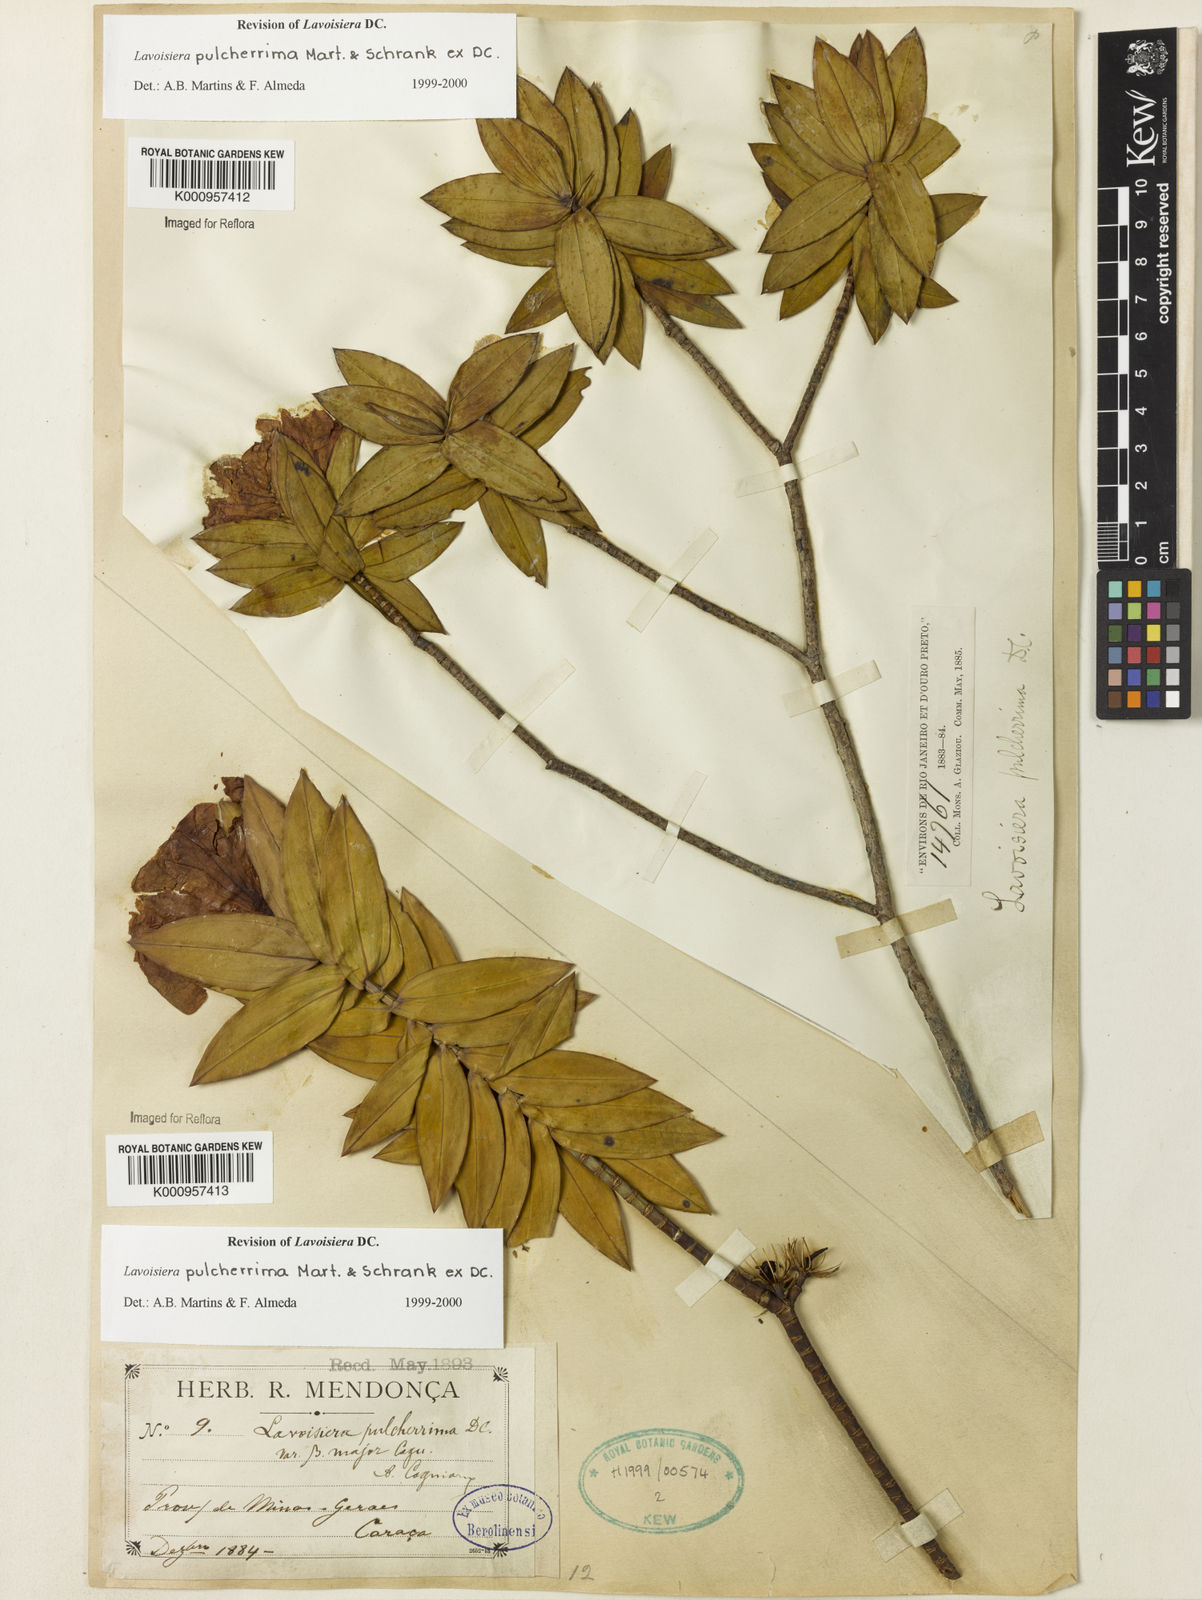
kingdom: Plantae
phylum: Tracheophyta
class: Magnoliopsida
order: Myrtales
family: Melastomataceae
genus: Microlicia
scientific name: Microlicia pulcherrima
